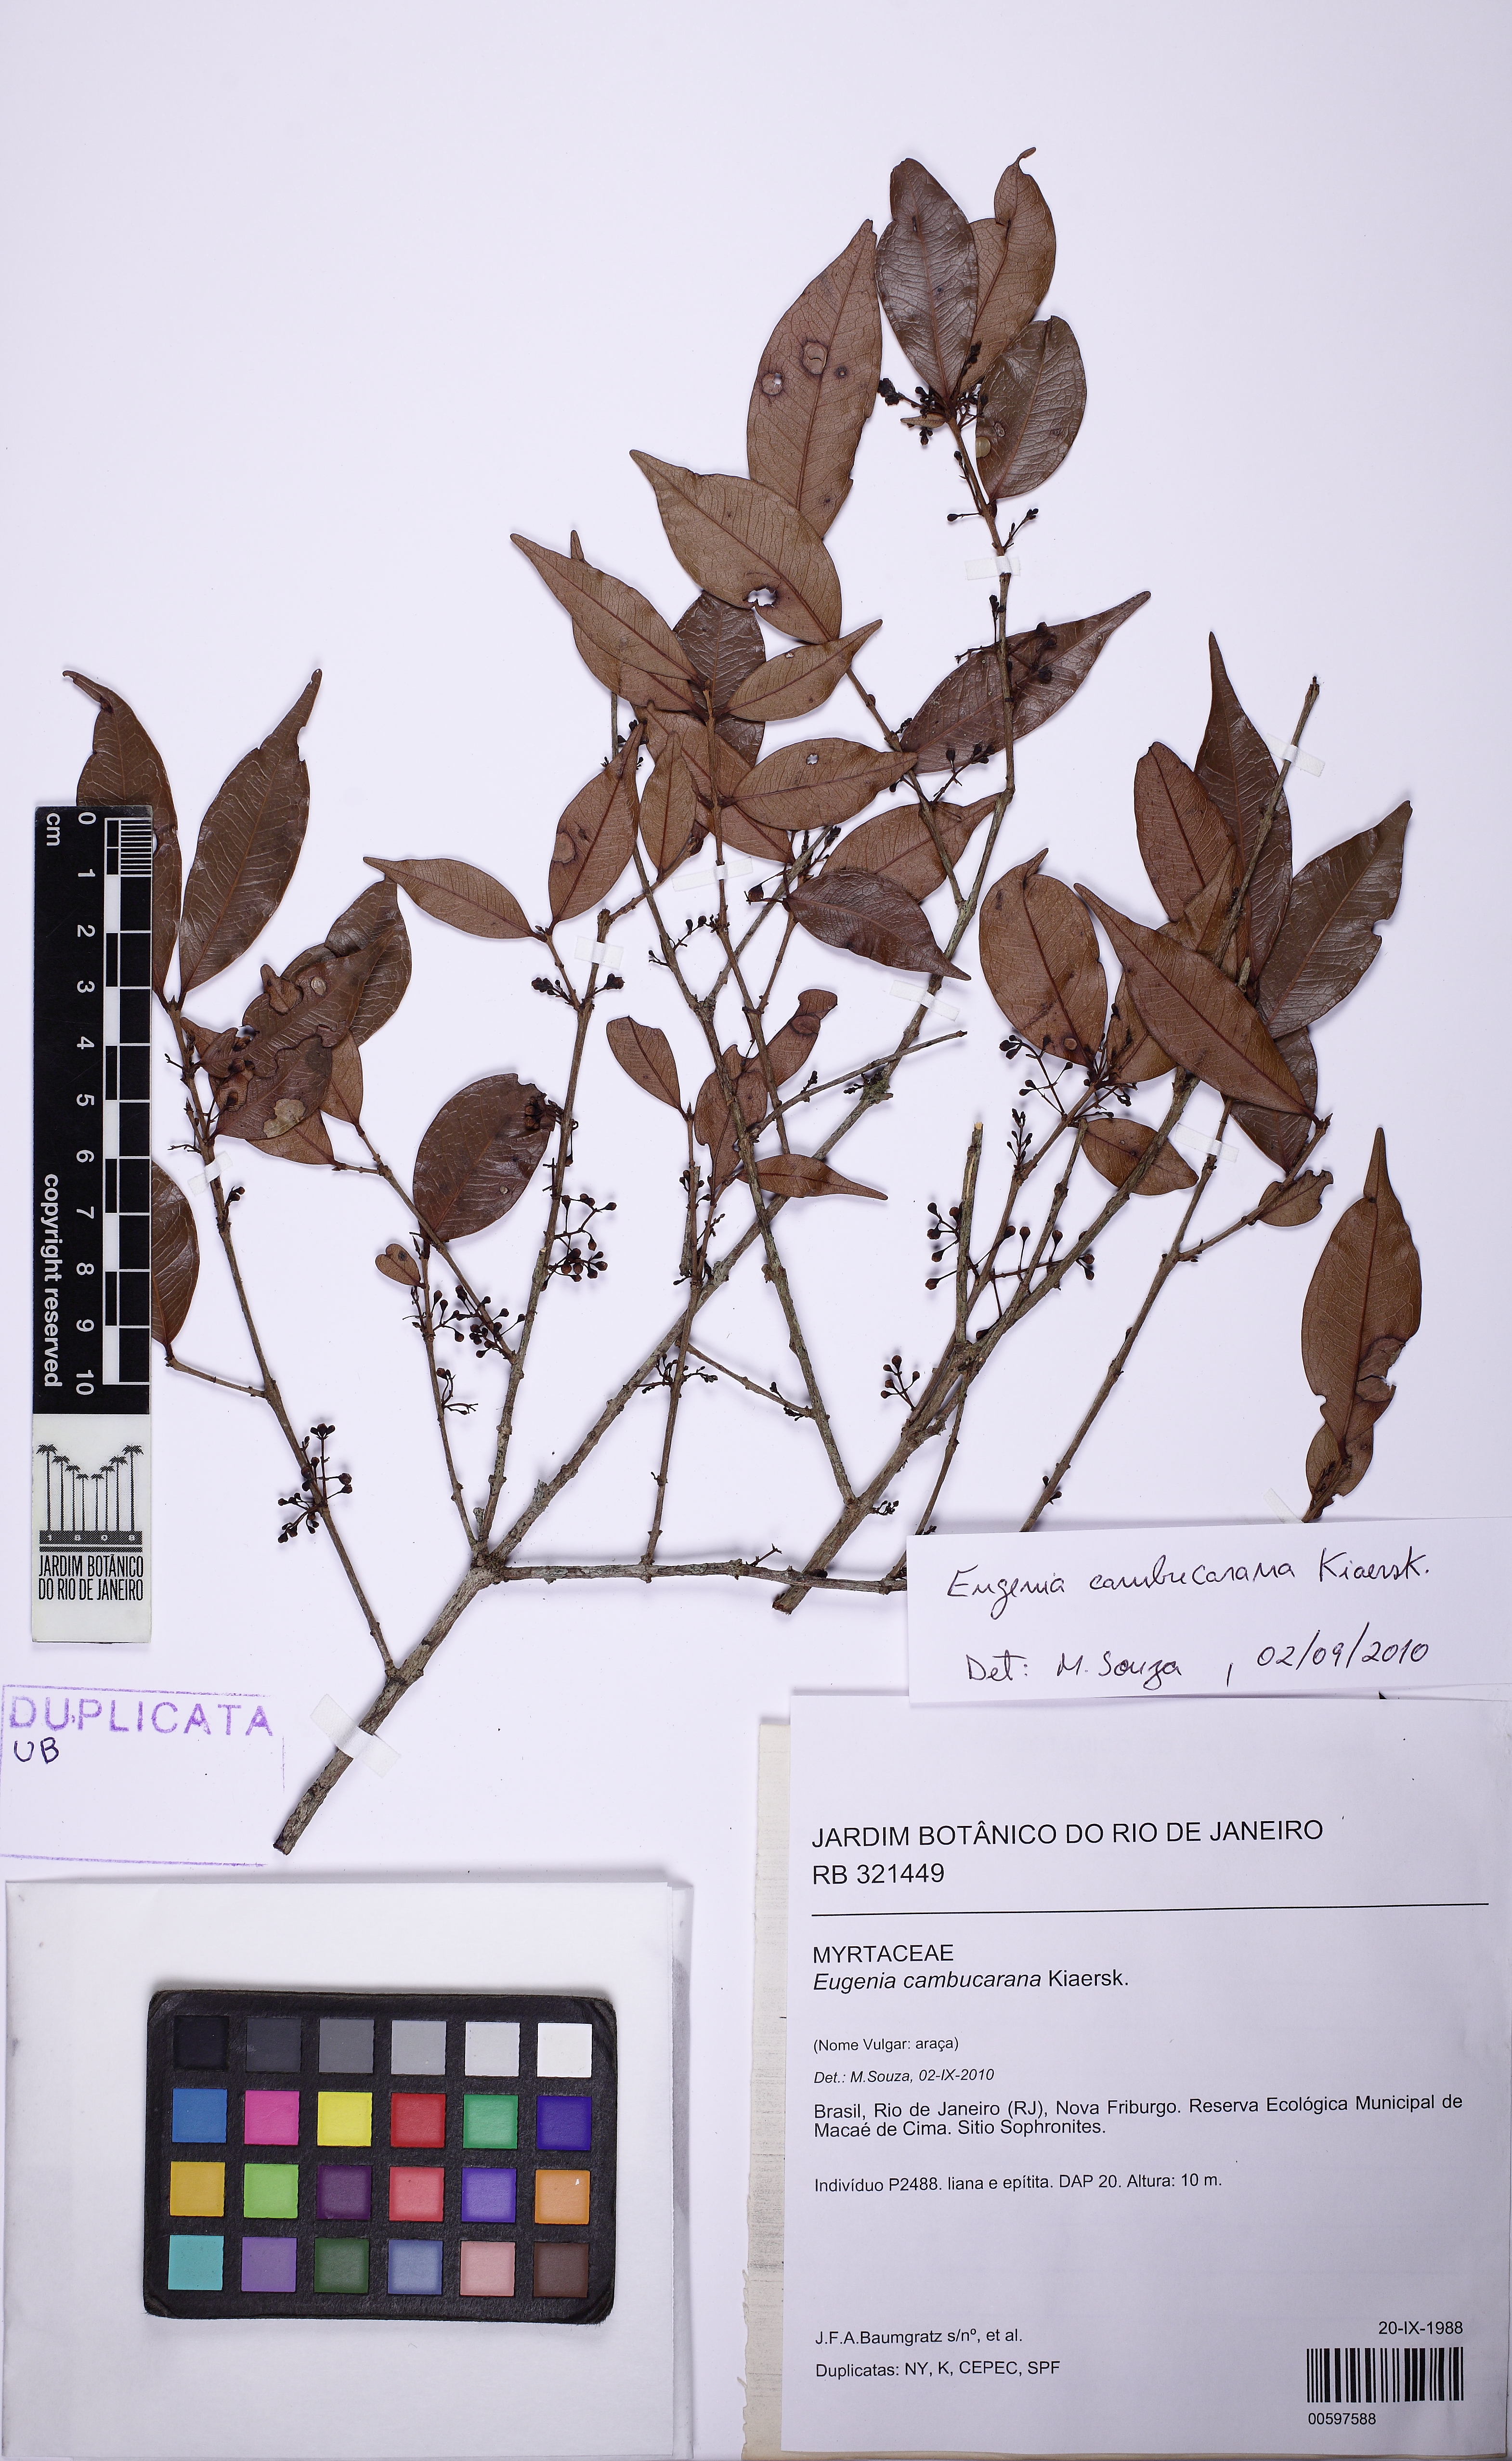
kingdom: Plantae
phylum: Tracheophyta
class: Magnoliopsida
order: Myrtales
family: Myrtaceae
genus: Eugenia
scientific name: Eugenia supraaxillaris
